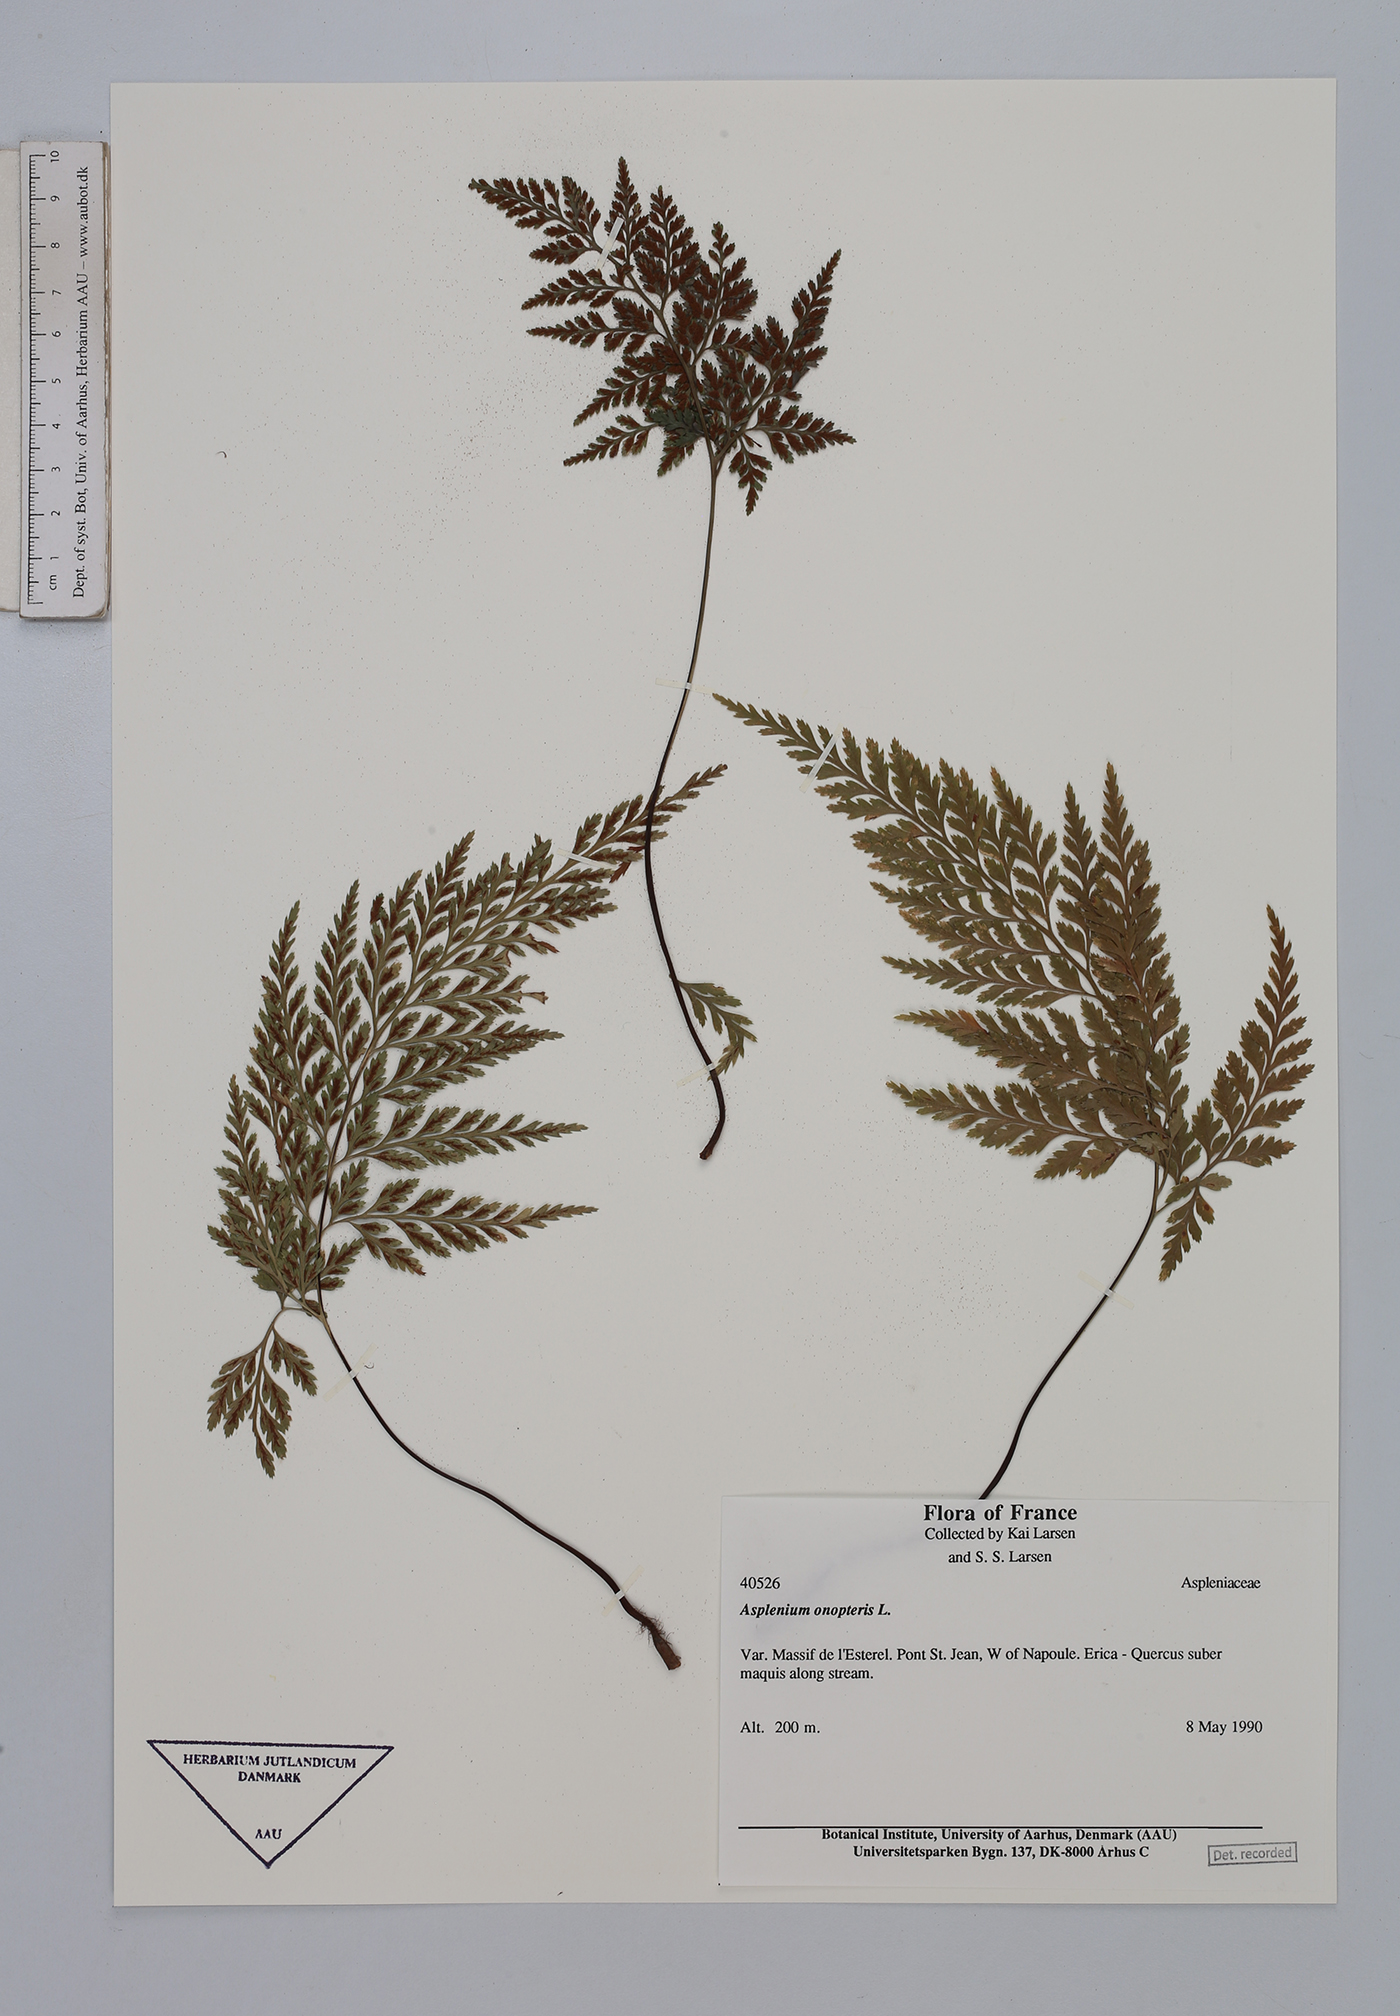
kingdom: Plantae
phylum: Tracheophyta
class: Polypodiopsida
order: Polypodiales
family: Aspleniaceae
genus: Asplenium
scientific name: Asplenium onopteris
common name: Irish spleenwort
